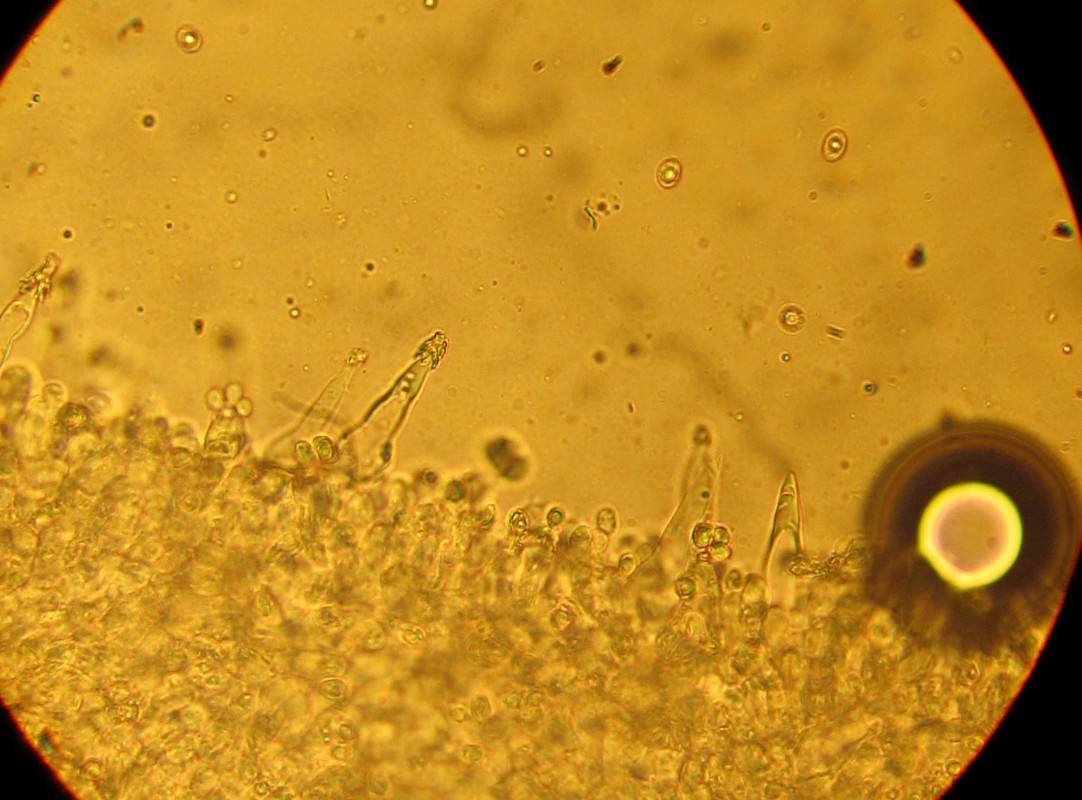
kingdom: Fungi
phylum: Basidiomycota
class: Agaricomycetes
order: Agaricales
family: Tricholomataceae
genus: Melanoleuca
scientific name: Melanoleuca polioleuca
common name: almindelig munkehat
